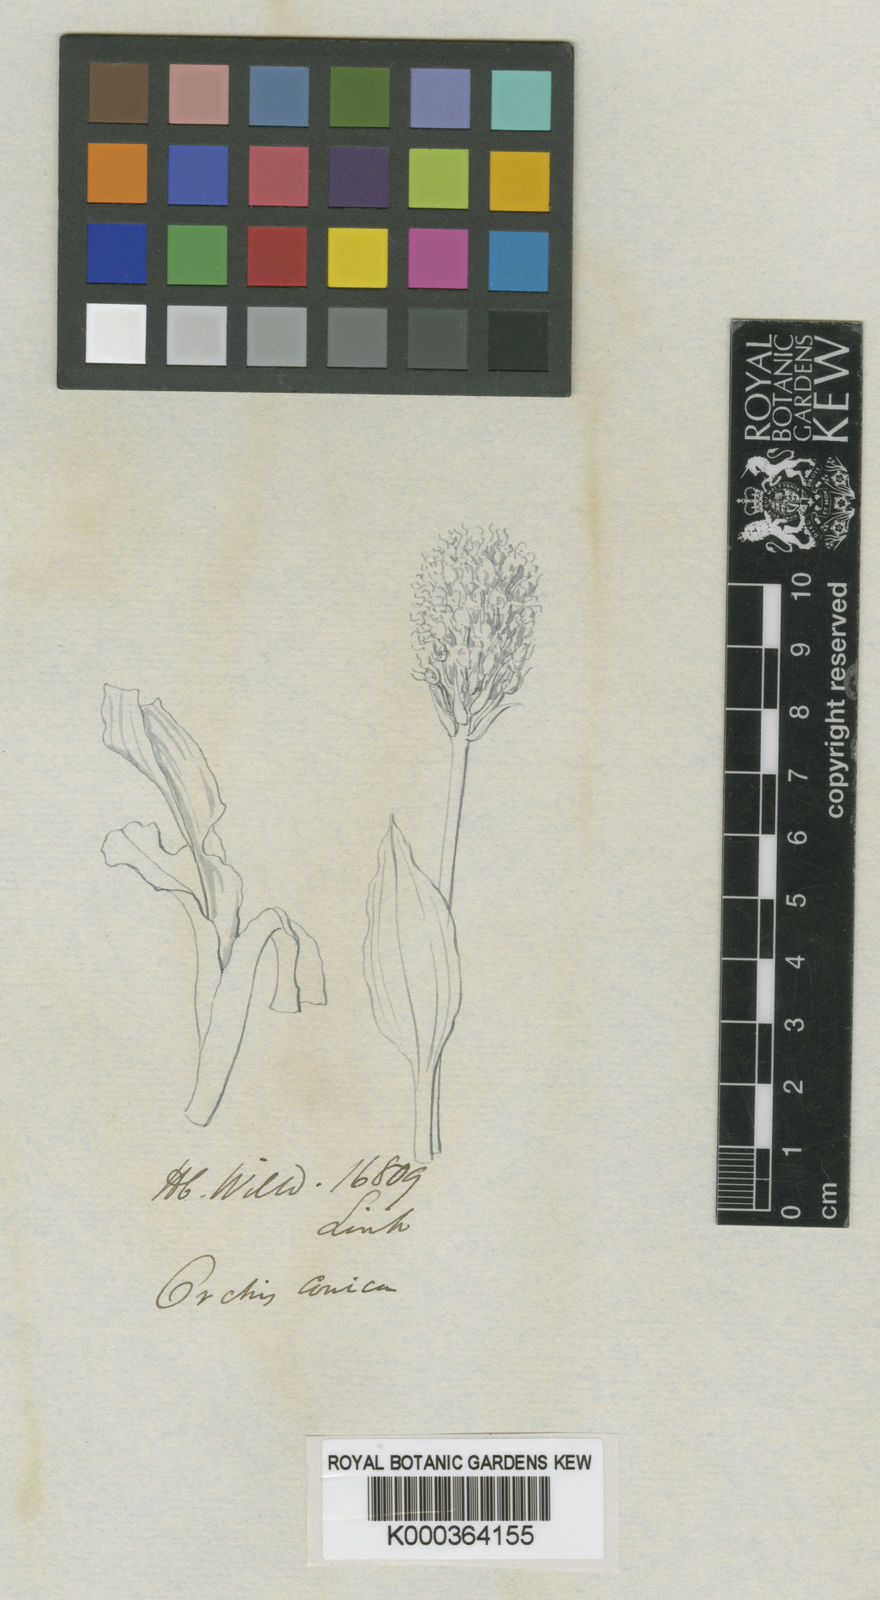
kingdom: Plantae
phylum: Tracheophyta
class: Liliopsida
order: Asparagales
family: Orchidaceae
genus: Neotinea
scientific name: Neotinea
